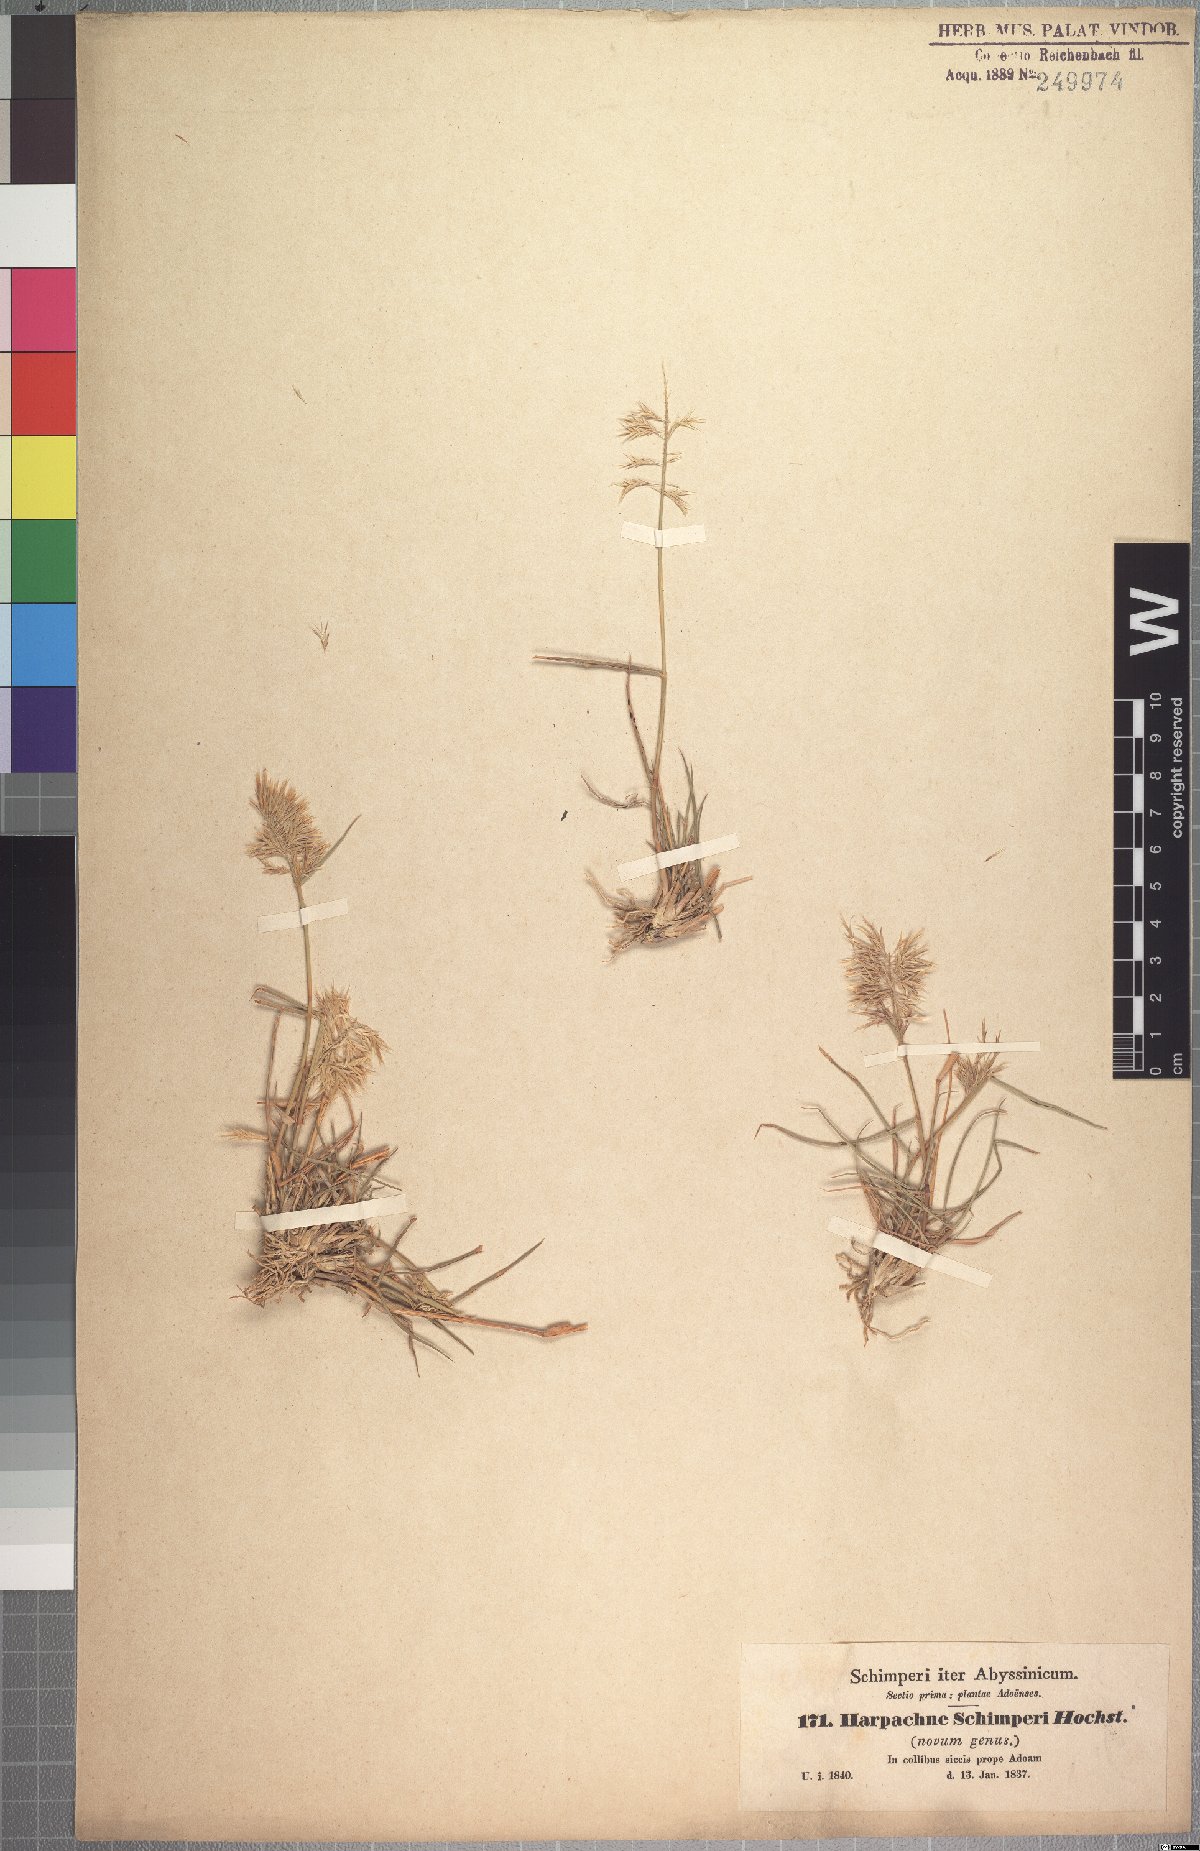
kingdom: Plantae
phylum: Tracheophyta
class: Liliopsida
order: Poales
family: Poaceae
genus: Harpachne
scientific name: Harpachne schimperi
